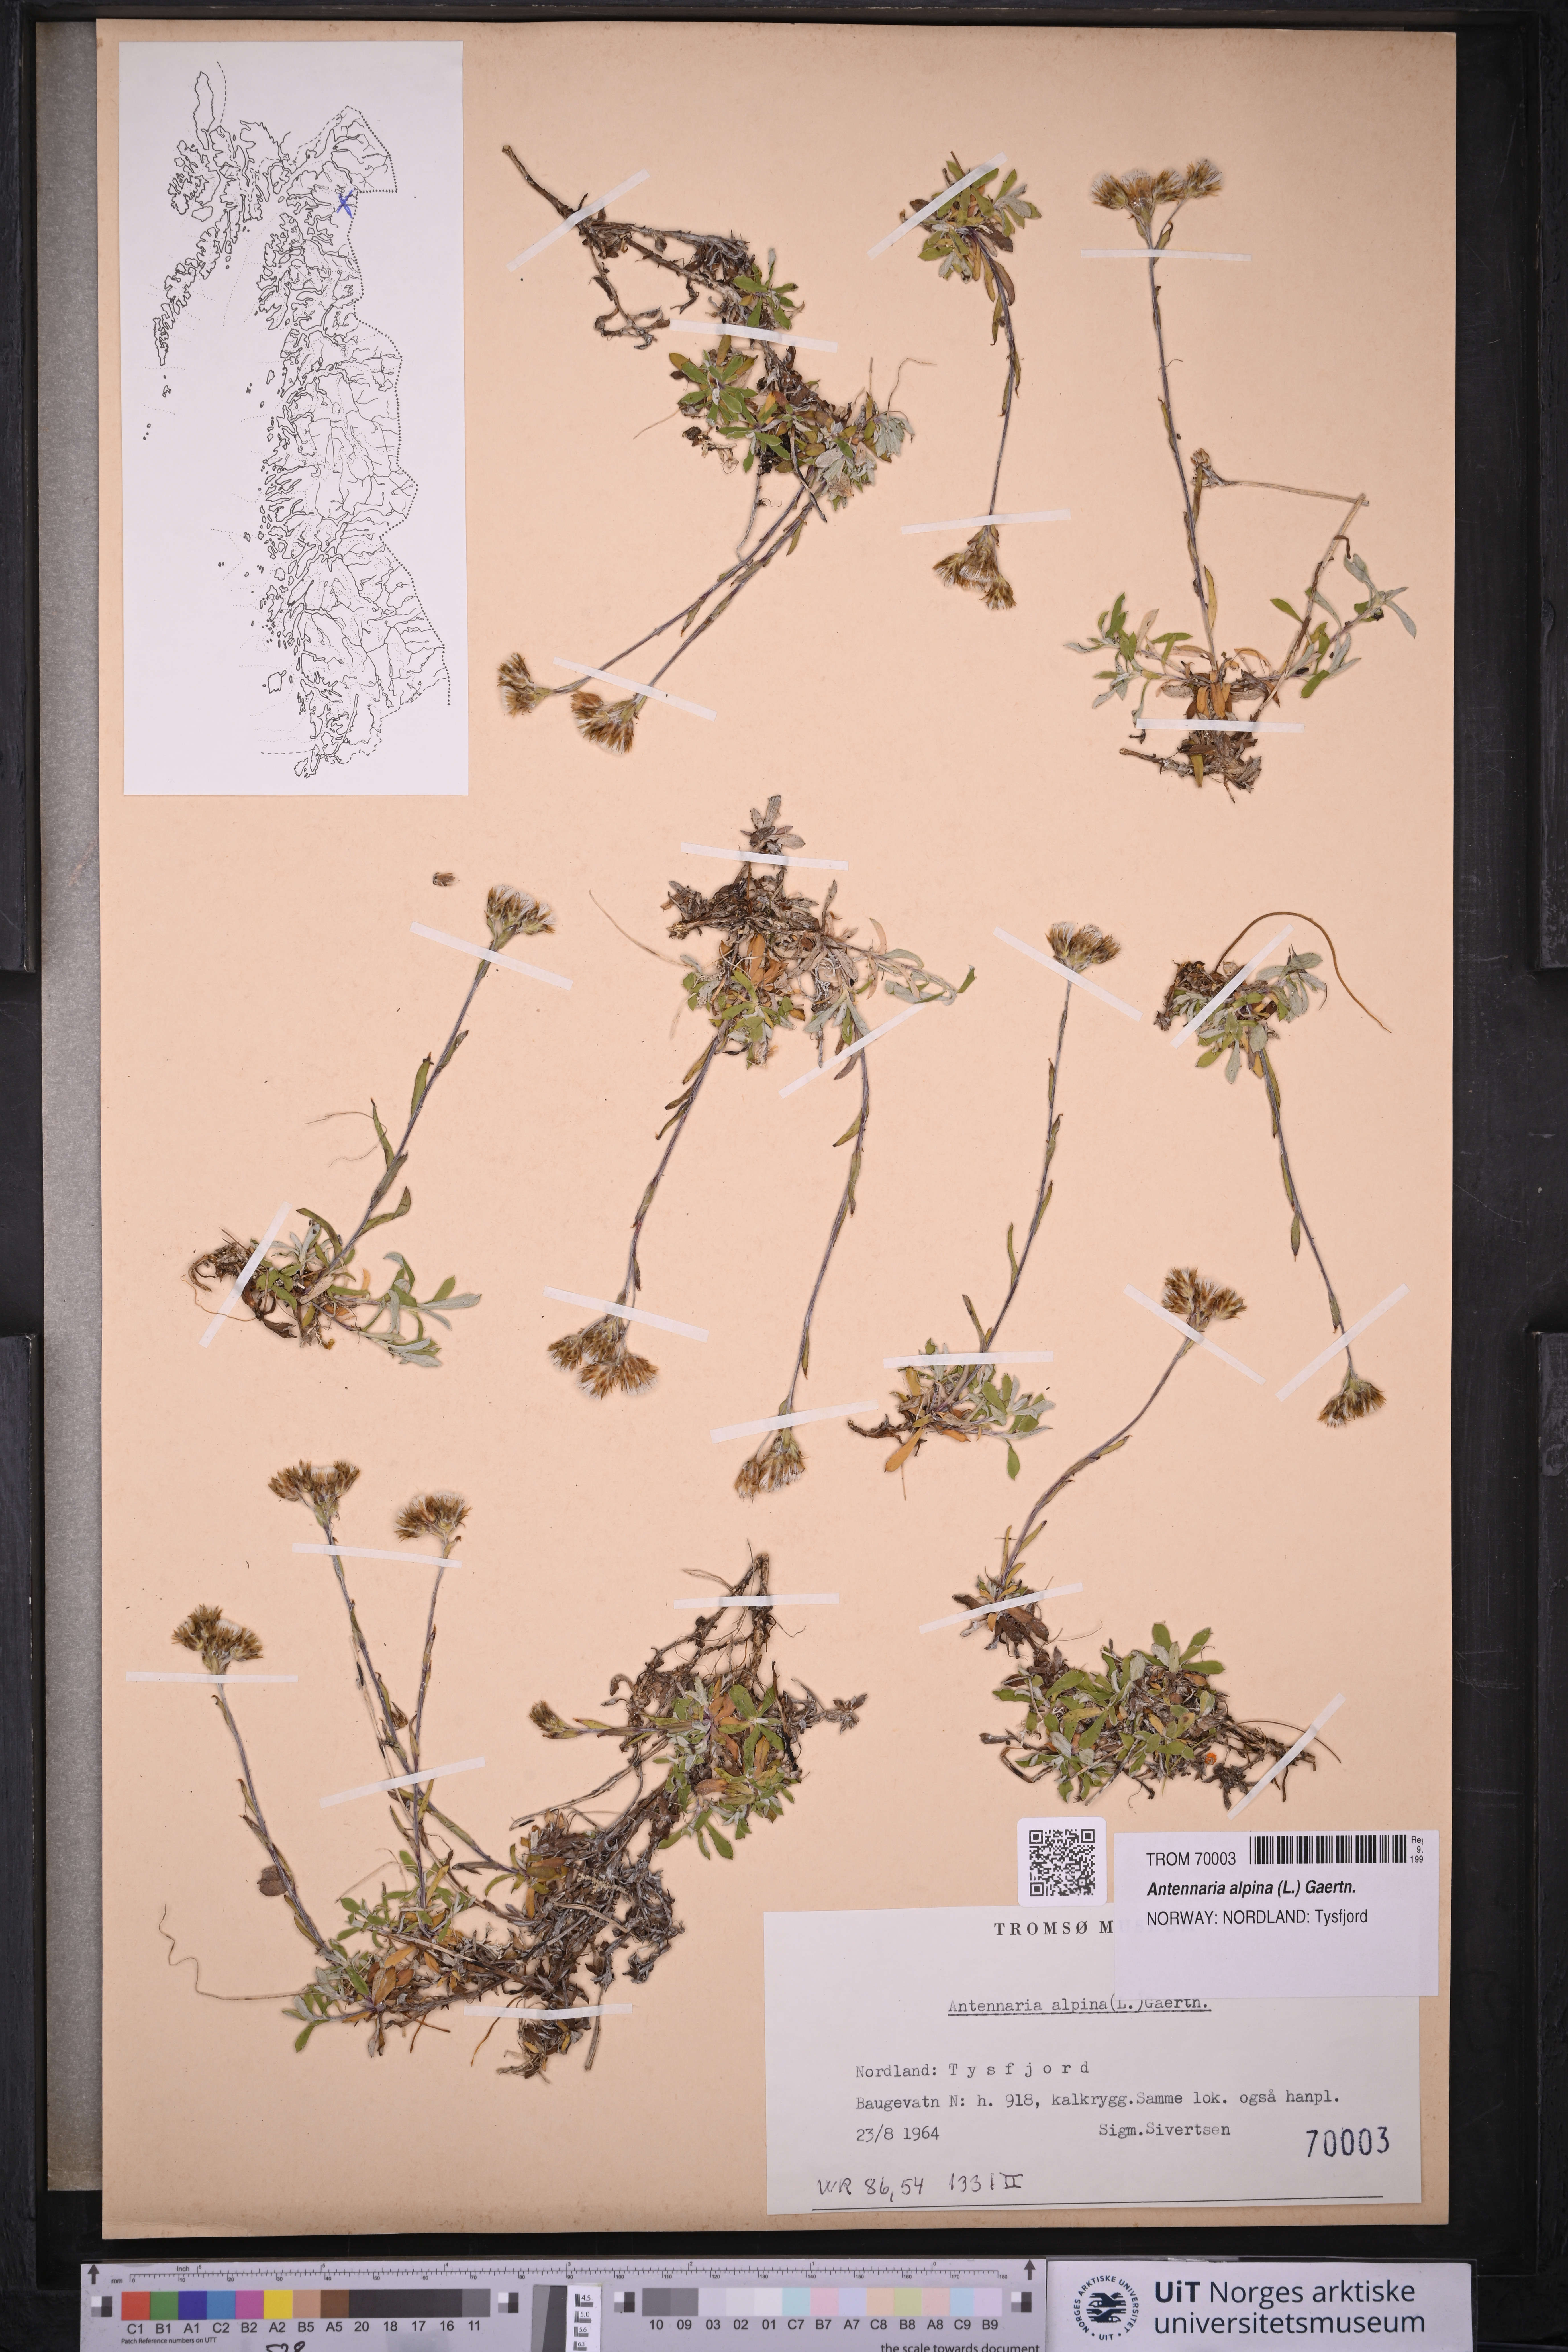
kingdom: Plantae
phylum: Tracheophyta
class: Magnoliopsida
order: Asterales
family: Asteraceae
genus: Antennaria
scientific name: Antennaria alpina
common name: Alpine pussytoes
